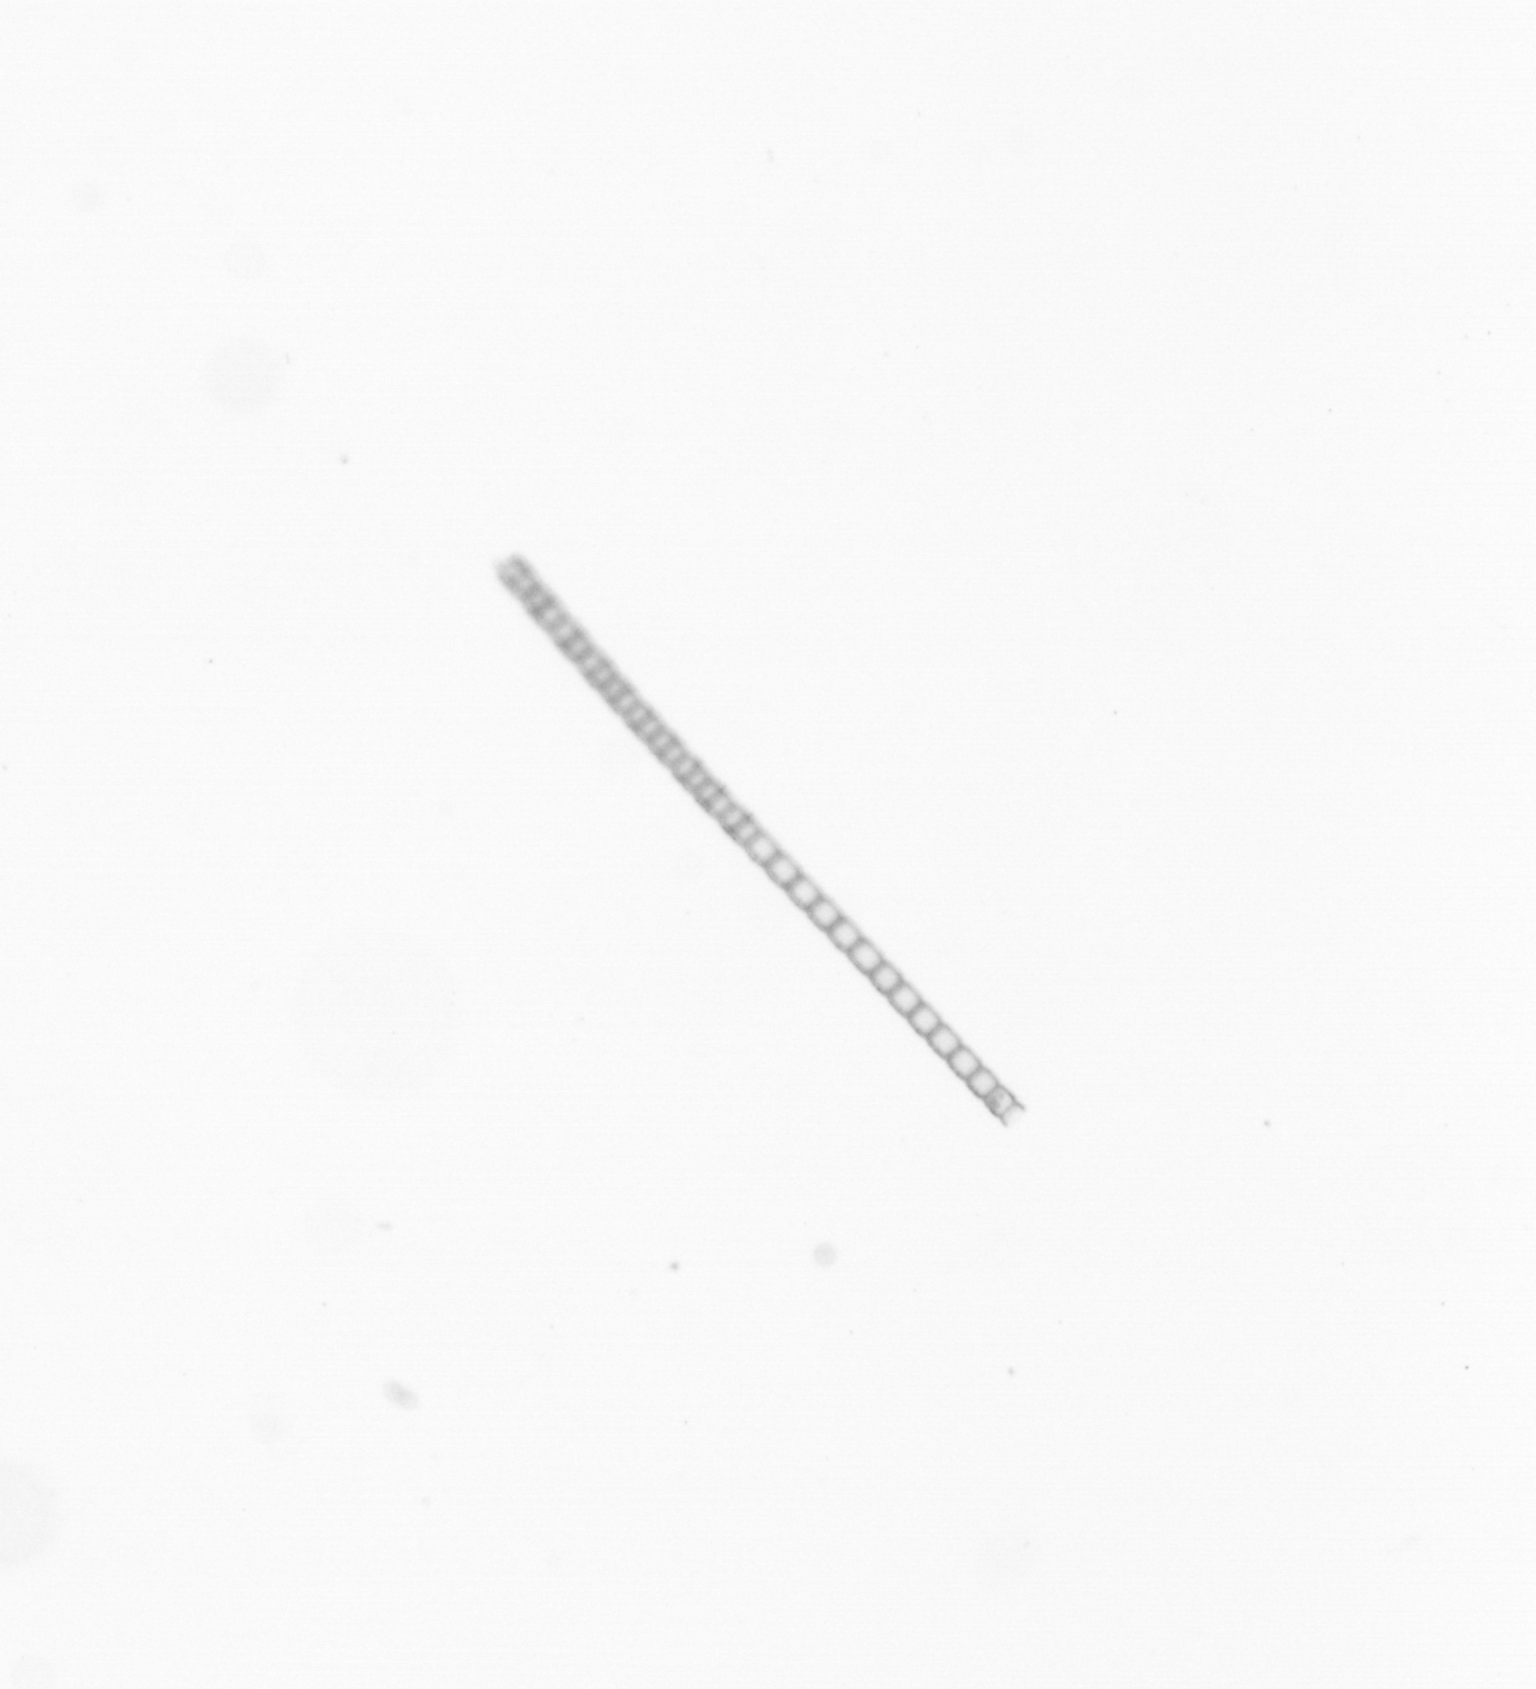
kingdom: Chromista
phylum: Ochrophyta
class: Bacillariophyceae
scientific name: Bacillariophyceae
